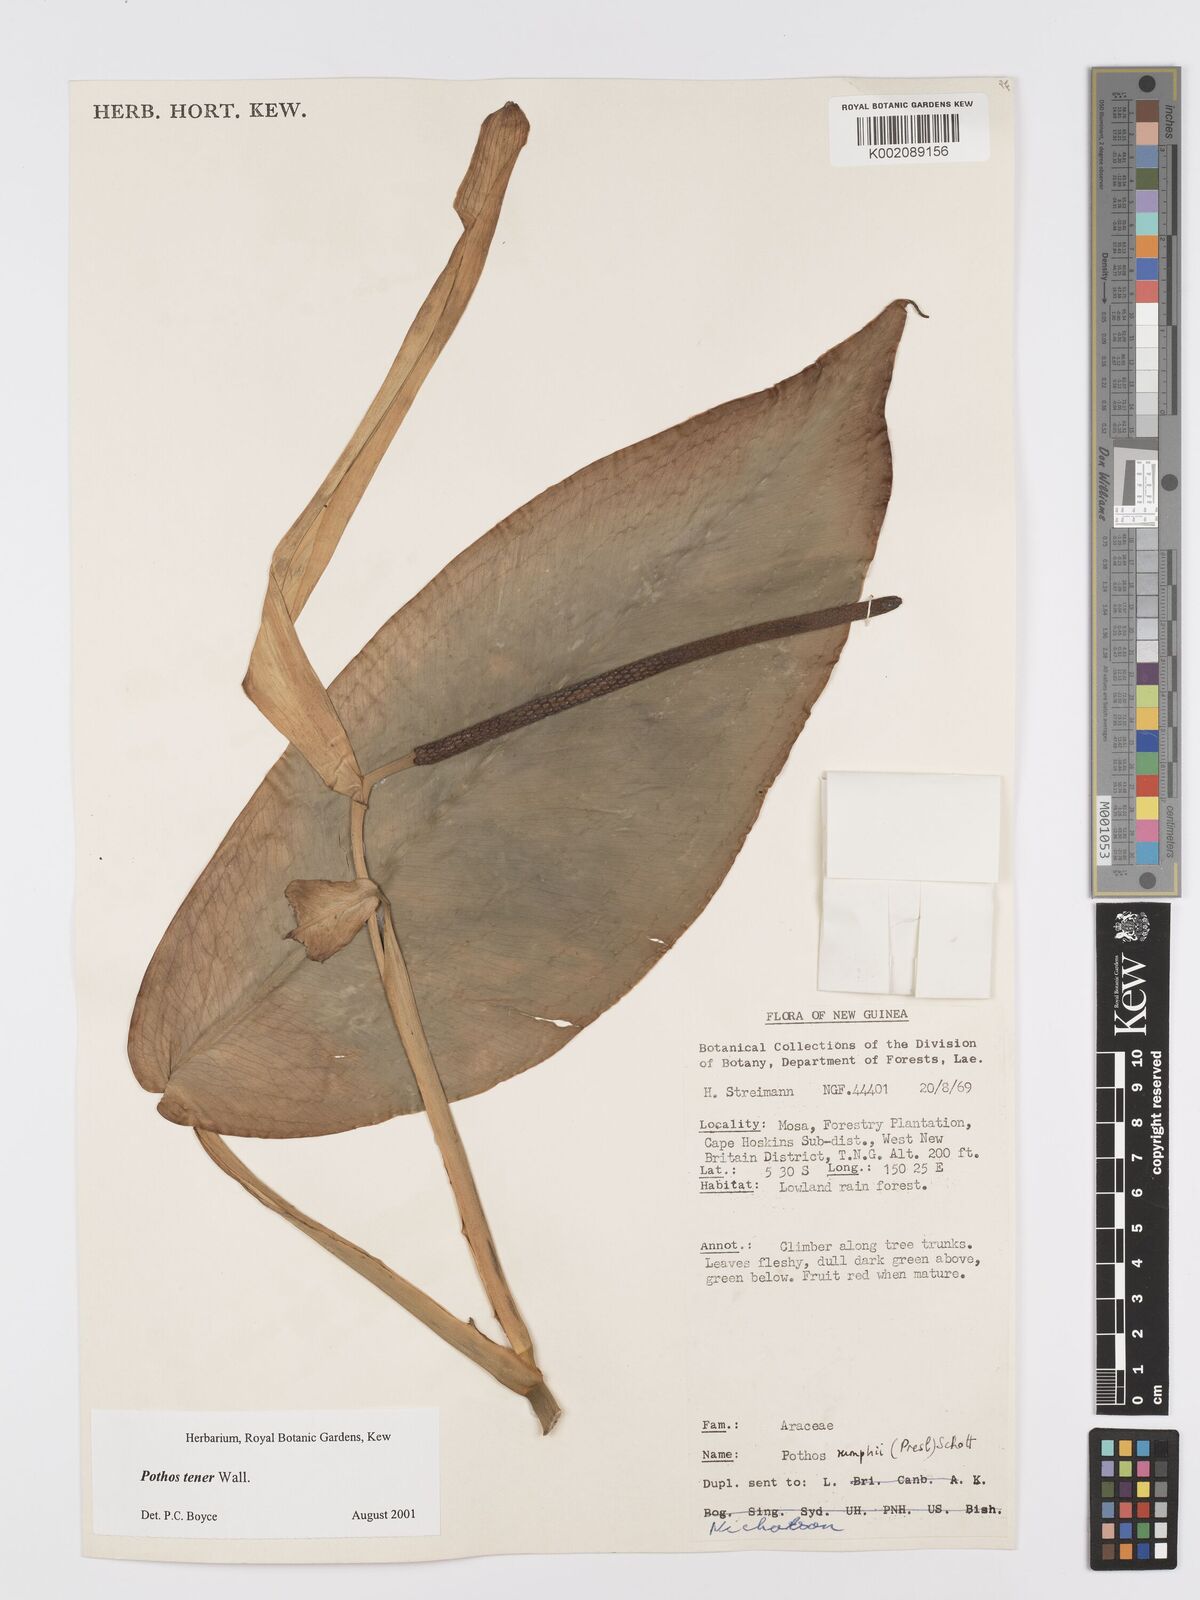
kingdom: Plantae
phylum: Tracheophyta
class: Liliopsida
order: Alismatales
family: Araceae
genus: Pothos
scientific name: Pothos tener
